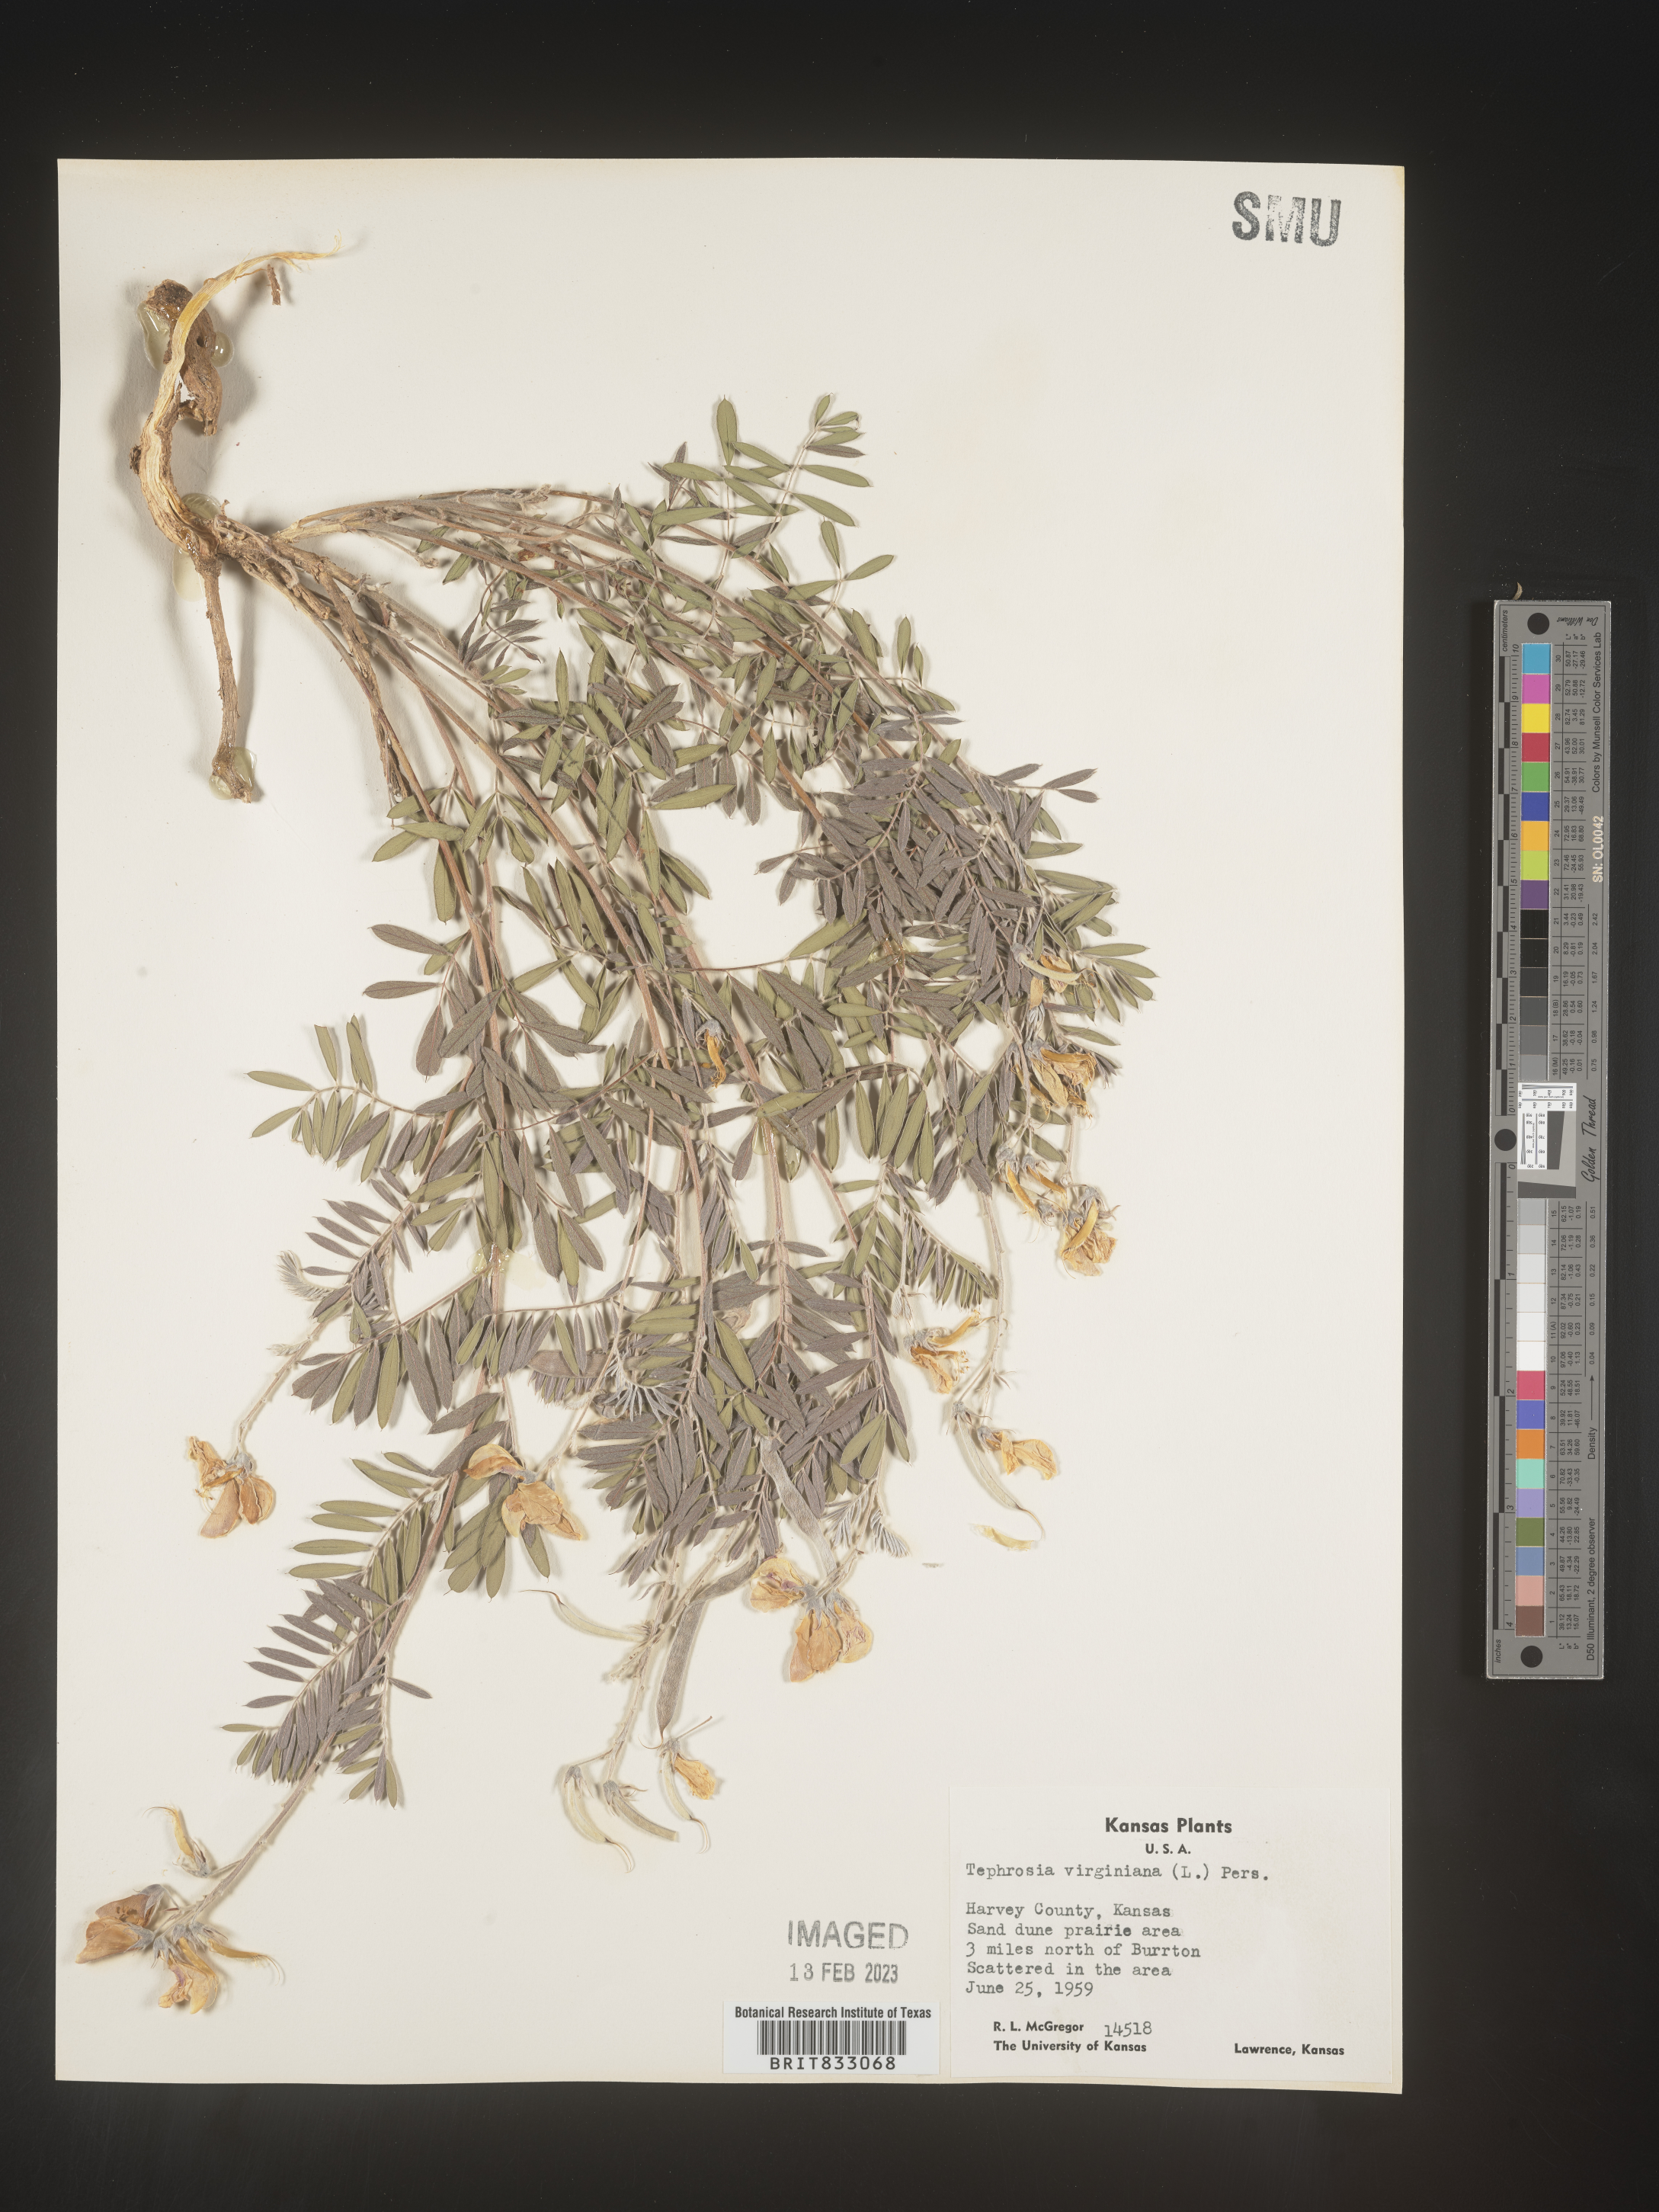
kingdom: Plantae
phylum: Tracheophyta
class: Magnoliopsida
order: Fabales
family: Fabaceae
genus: Tephrosia
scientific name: Tephrosia virginiana
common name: Rabbit-pea
